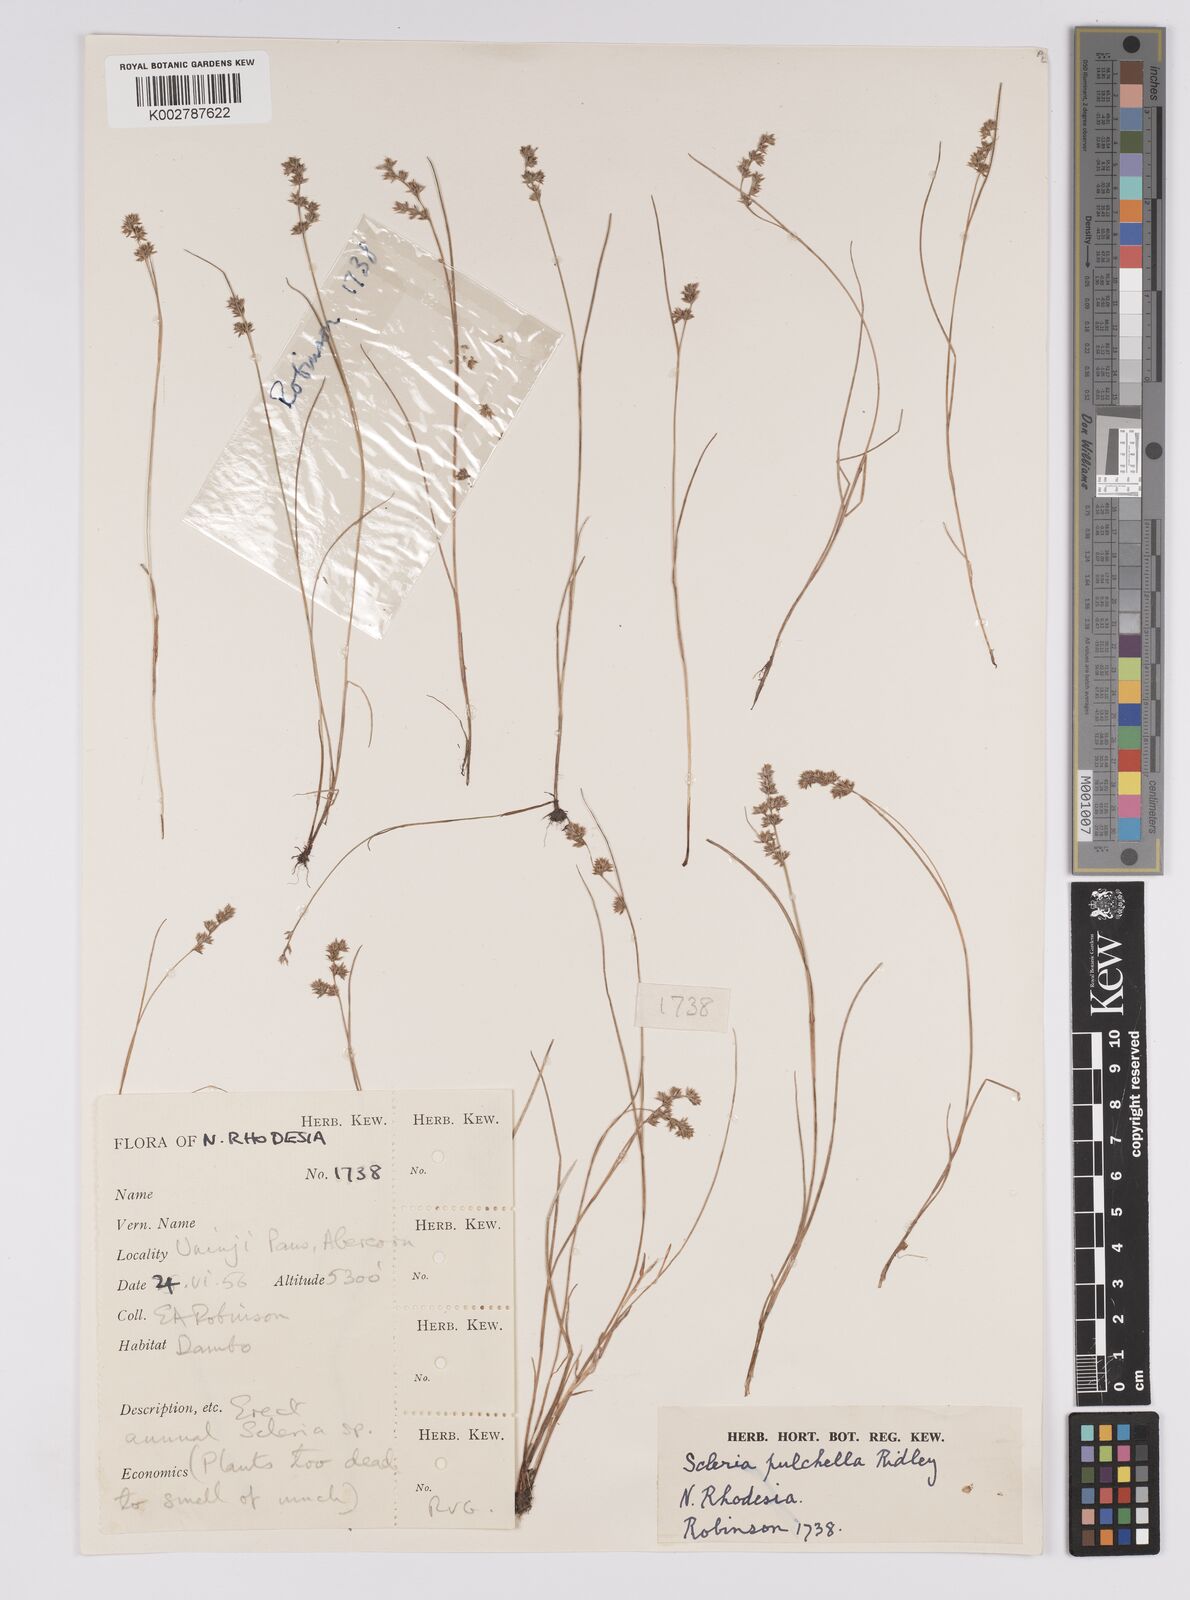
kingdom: Plantae
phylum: Tracheophyta
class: Liliopsida
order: Poales
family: Cyperaceae
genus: Scleria
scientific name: Scleria pulchella
